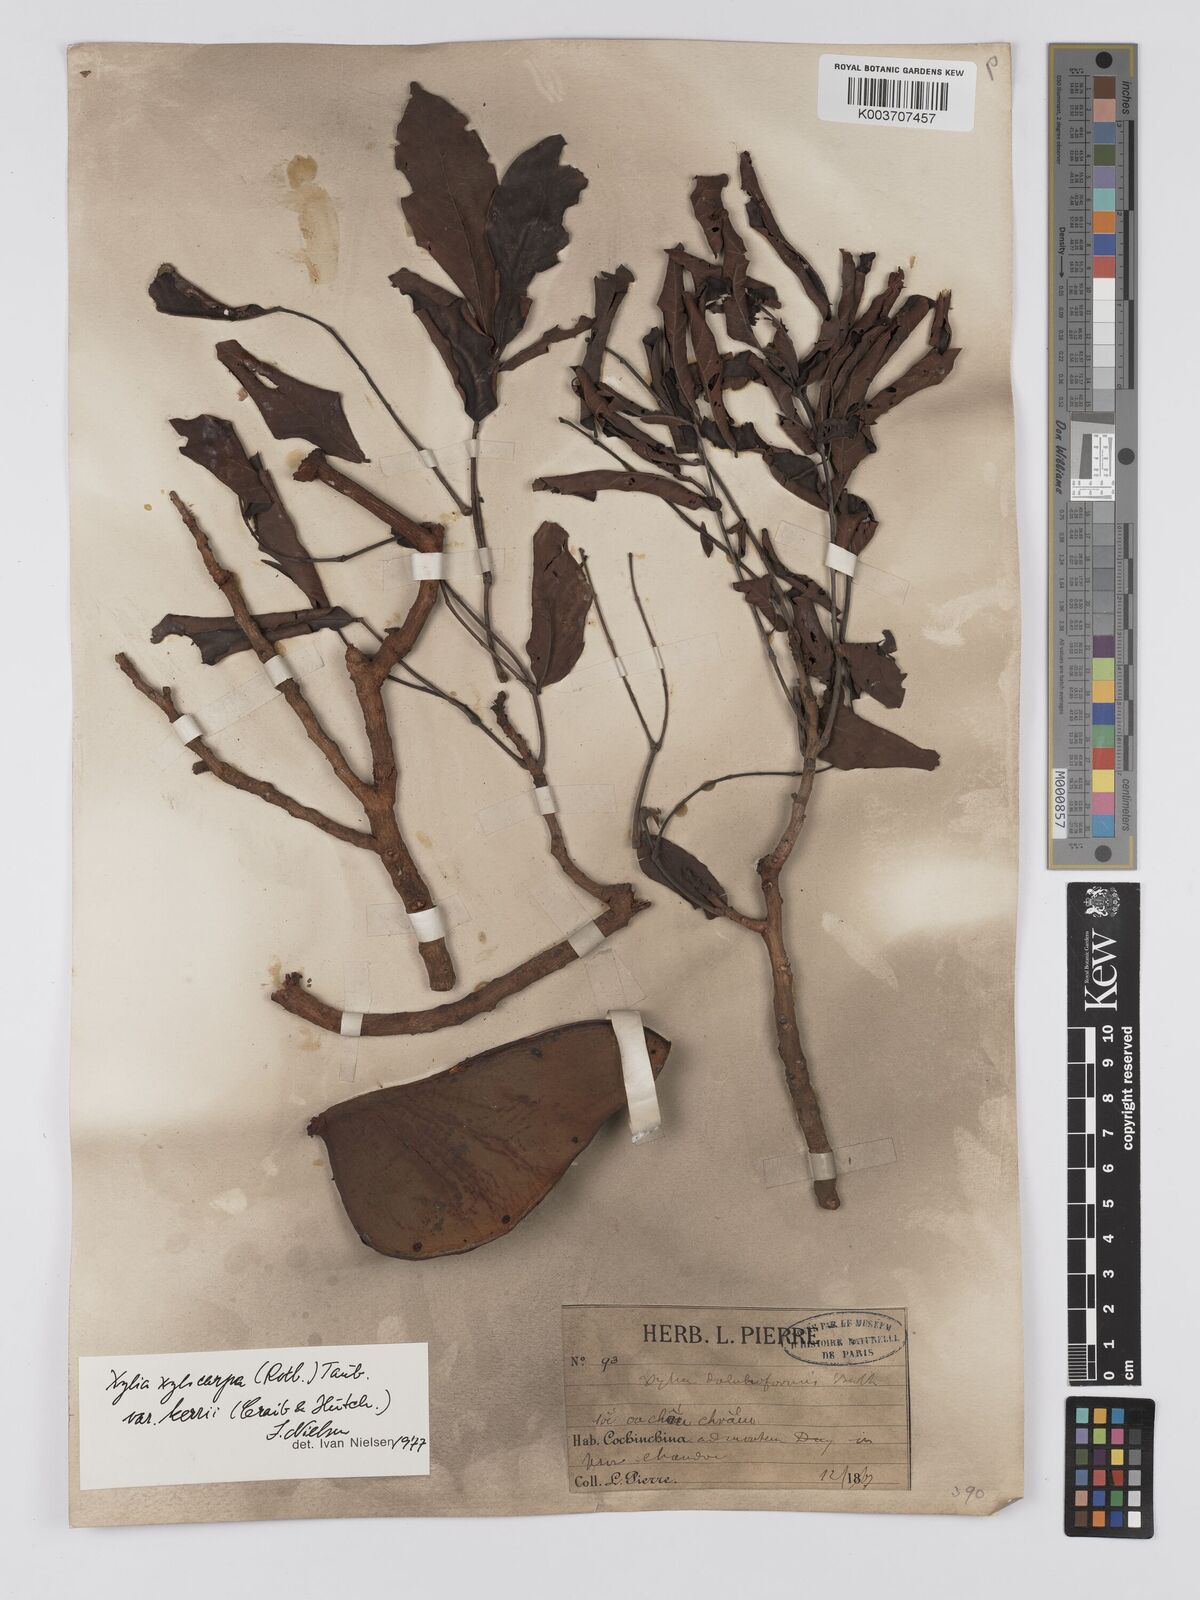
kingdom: Plantae
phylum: Tracheophyta
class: Magnoliopsida
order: Fabales
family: Fabaceae
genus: Xylia
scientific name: Xylia xylocarpa
